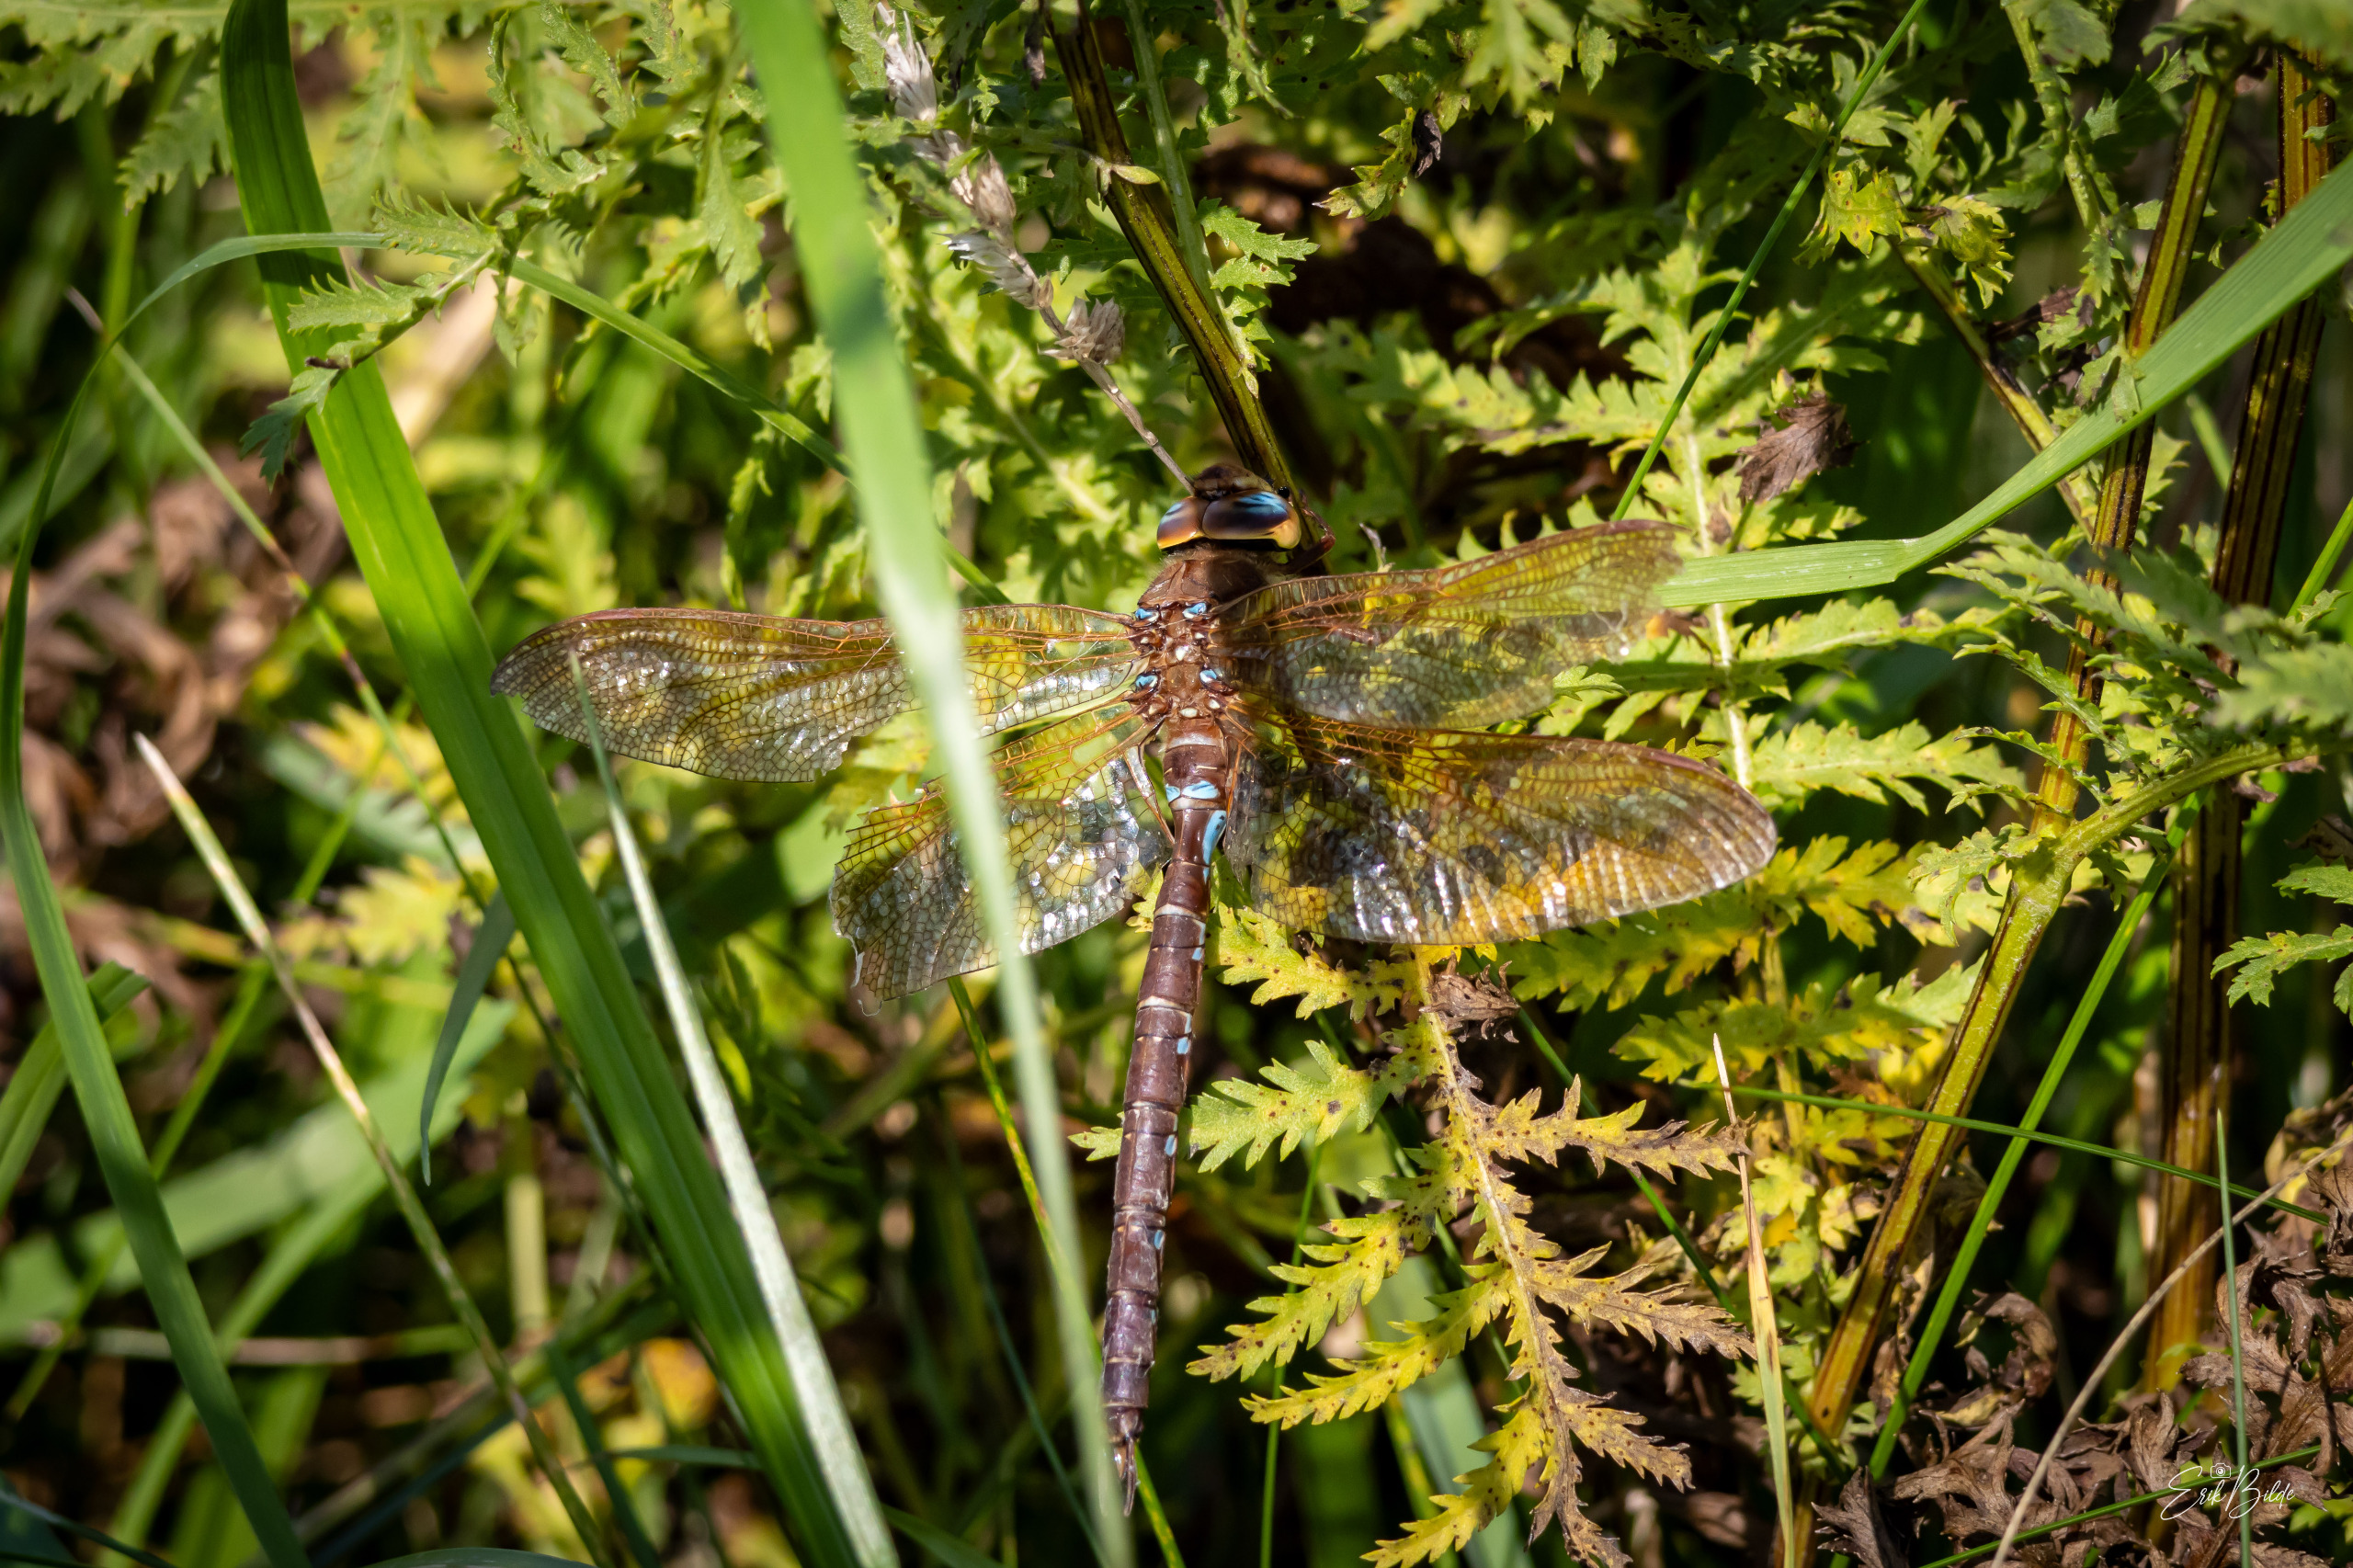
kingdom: Animalia
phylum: Arthropoda
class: Insecta
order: Odonata
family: Aeshnidae
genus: Aeshna
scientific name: Aeshna grandis
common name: Brun mosaikguldsmed
